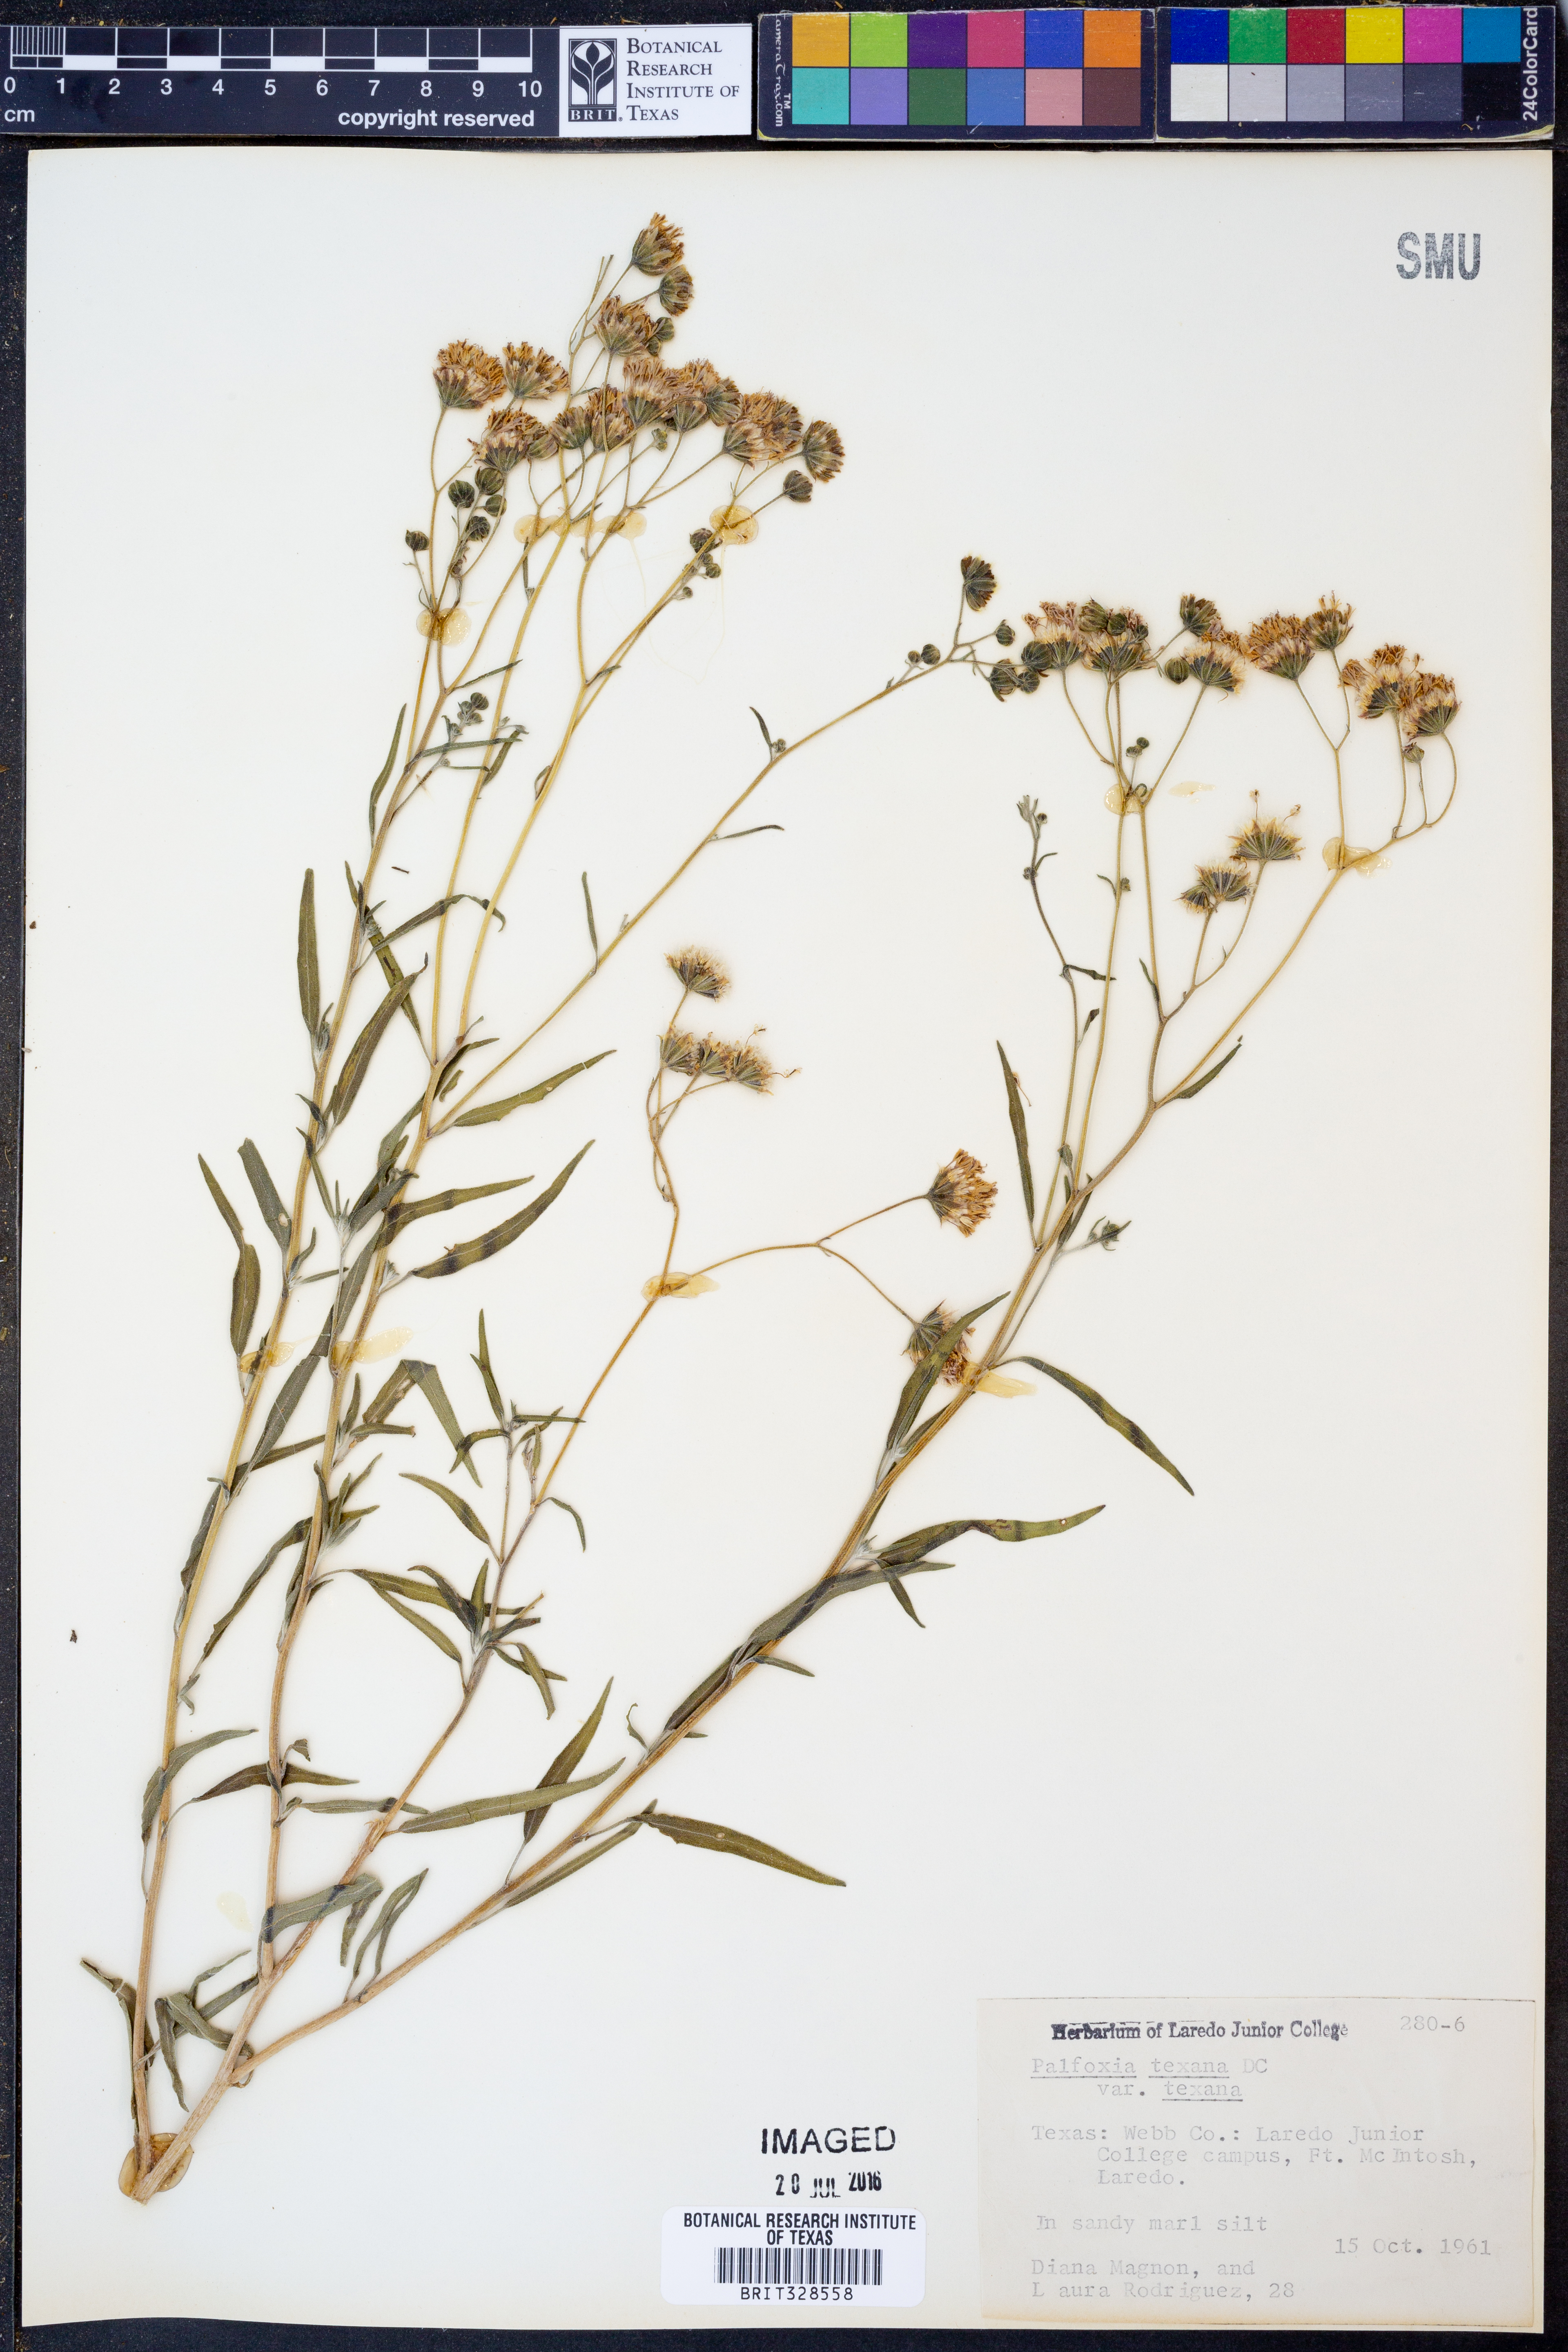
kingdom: Plantae
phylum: Tracheophyta
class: Magnoliopsida
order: Asterales
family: Asteraceae
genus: Palafoxia
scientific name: Palafoxia texana
